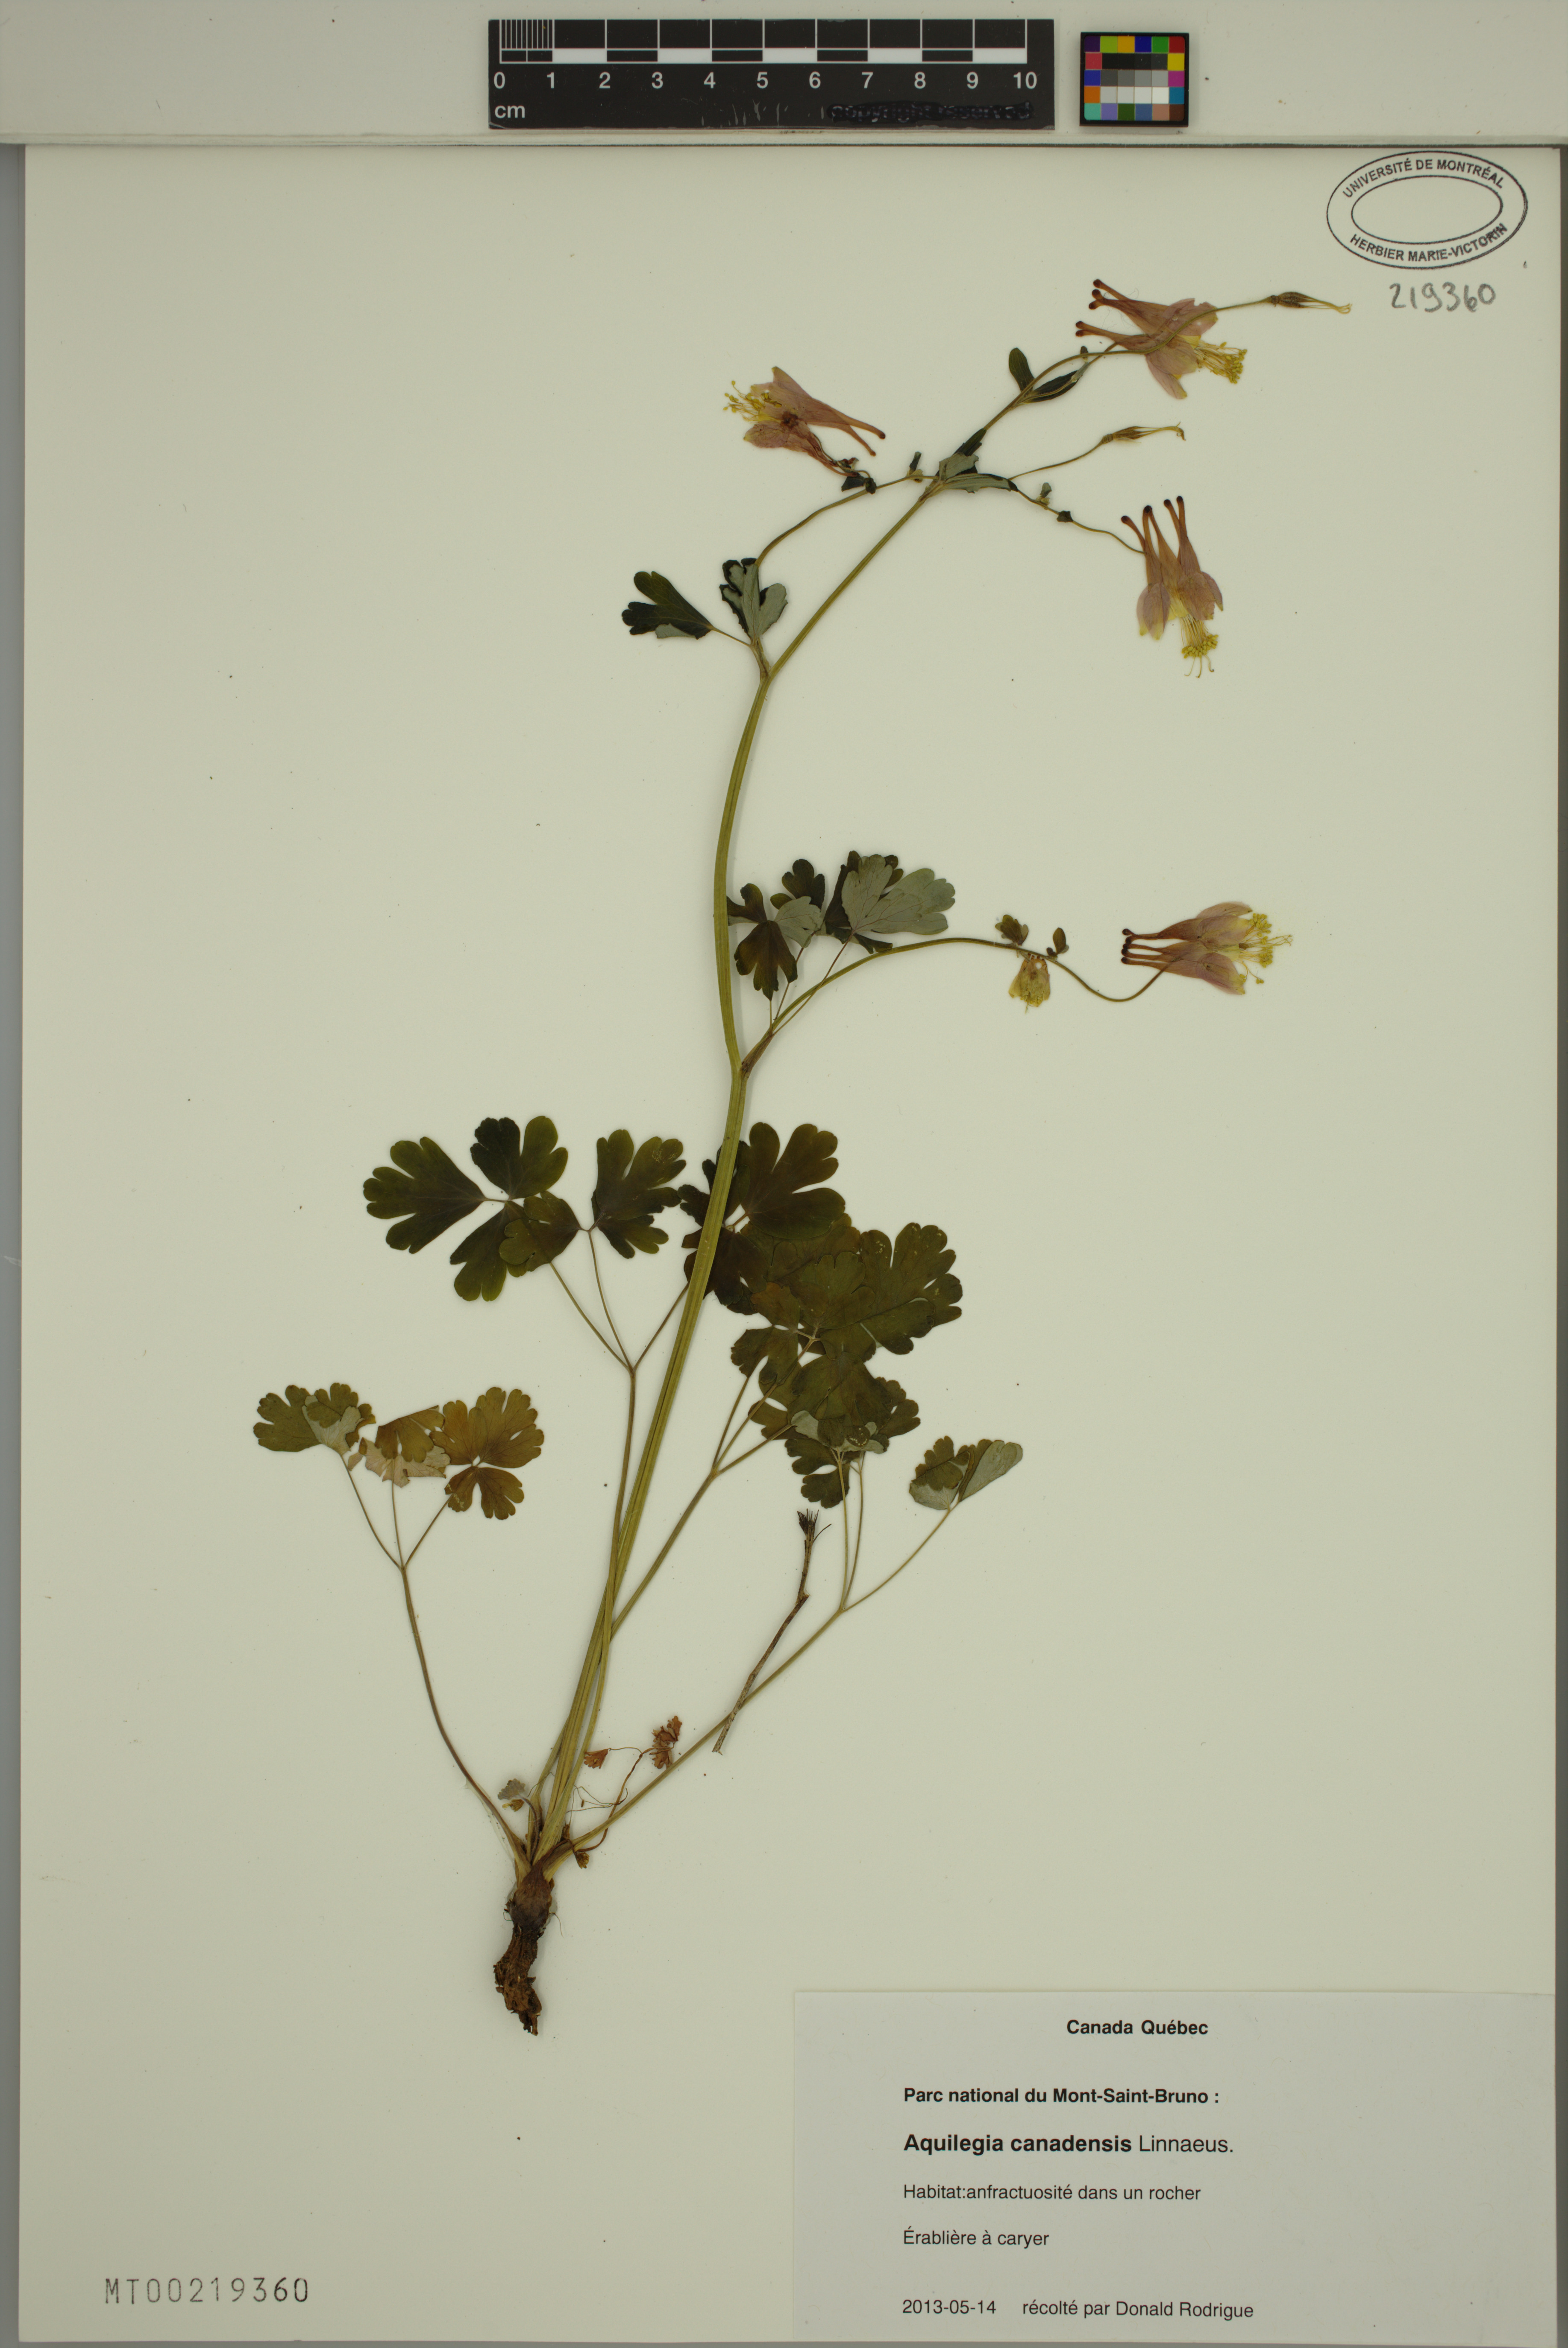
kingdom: Plantae
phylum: Tracheophyta
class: Magnoliopsida
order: Ranunculales
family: Ranunculaceae
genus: Aquilegia
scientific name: Aquilegia canadensis
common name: American columbine
